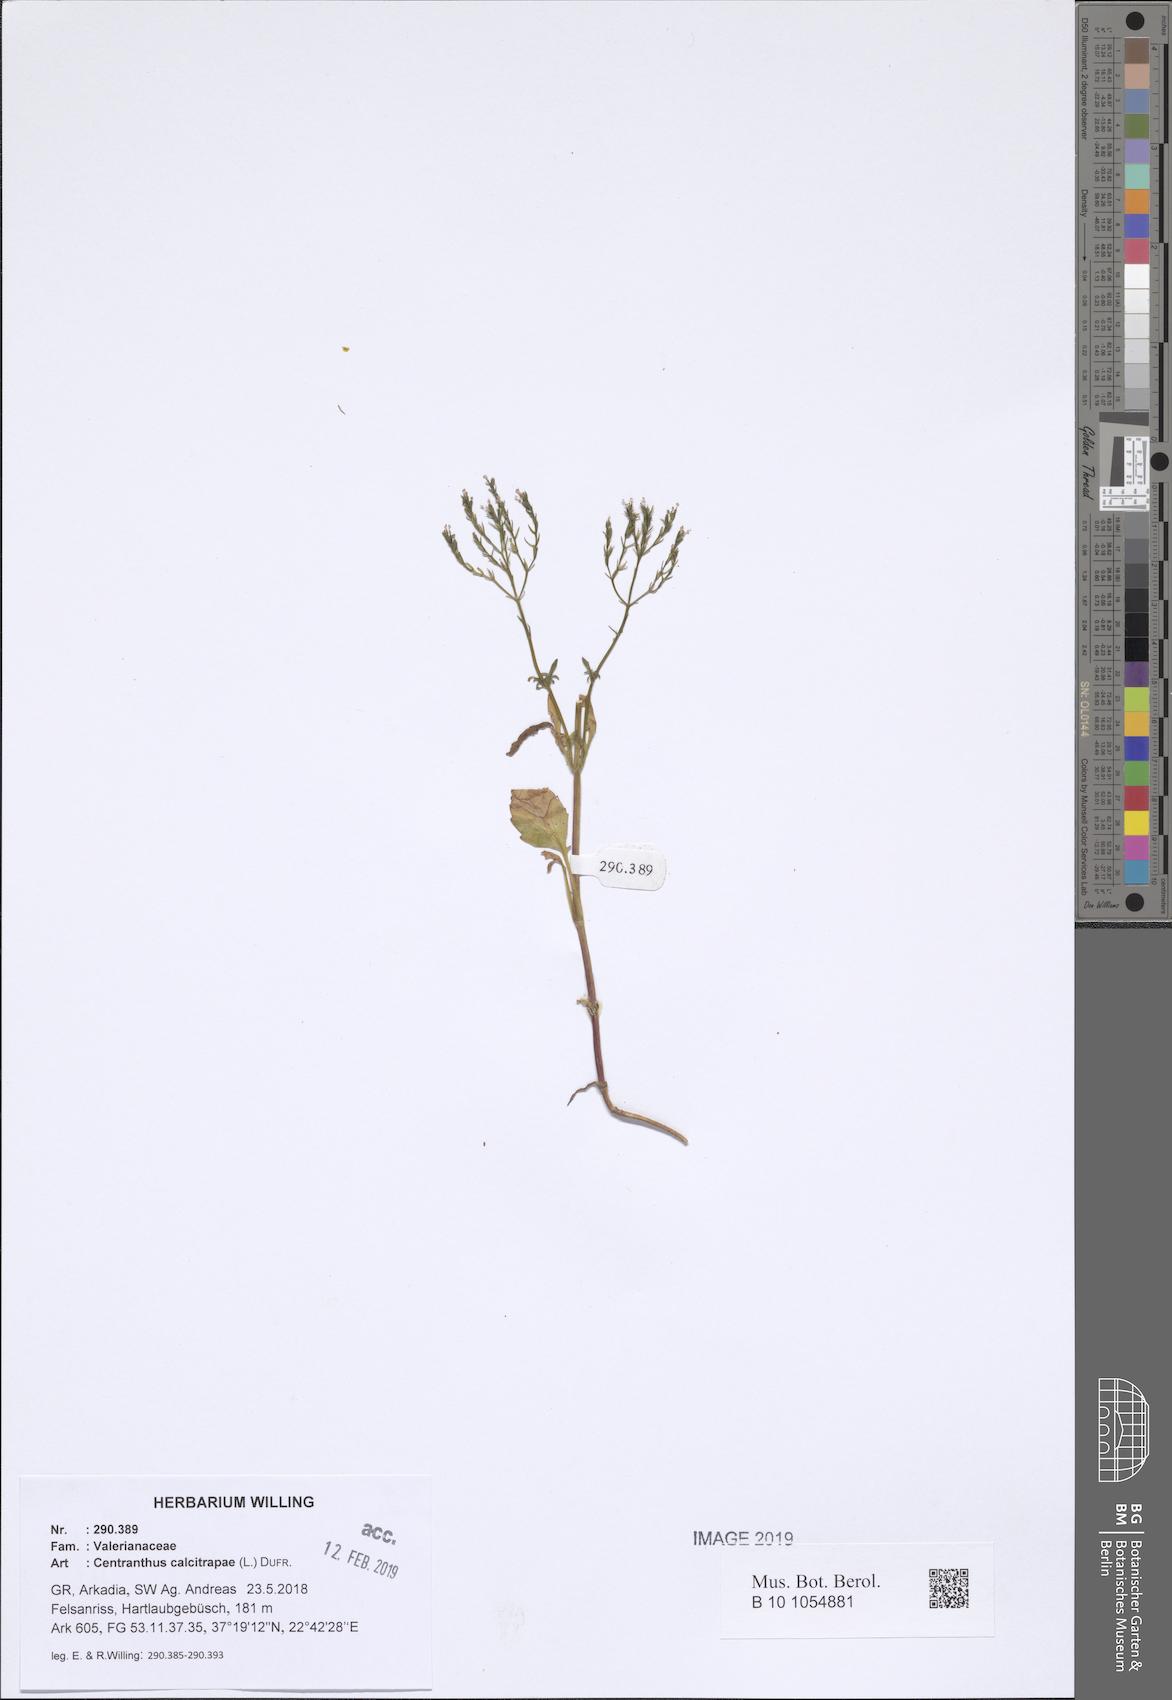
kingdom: Plantae
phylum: Tracheophyta
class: Magnoliopsida
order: Dipsacales
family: Caprifoliaceae
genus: Centranthus
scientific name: Centranthus calcitrapae
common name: Annual valerian
